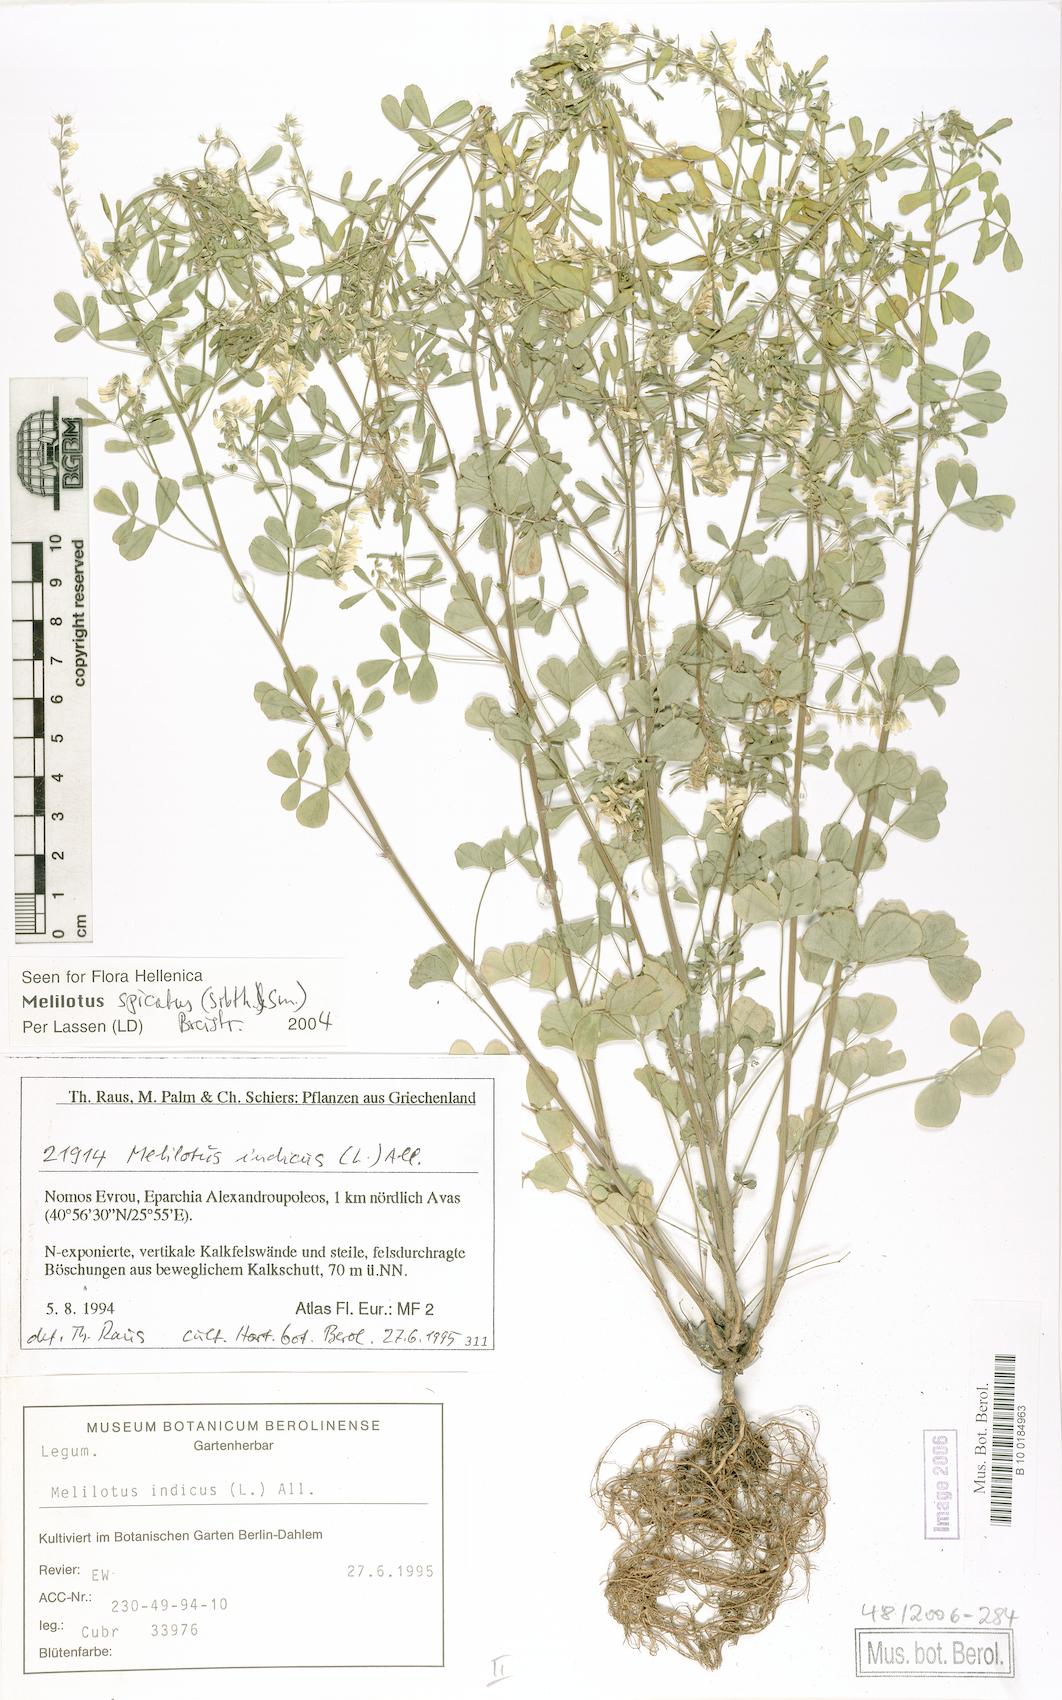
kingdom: Plantae
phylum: Tracheophyta
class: Magnoliopsida
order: Fabales
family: Fabaceae
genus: Melilotus
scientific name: Melilotus neapolitanus
